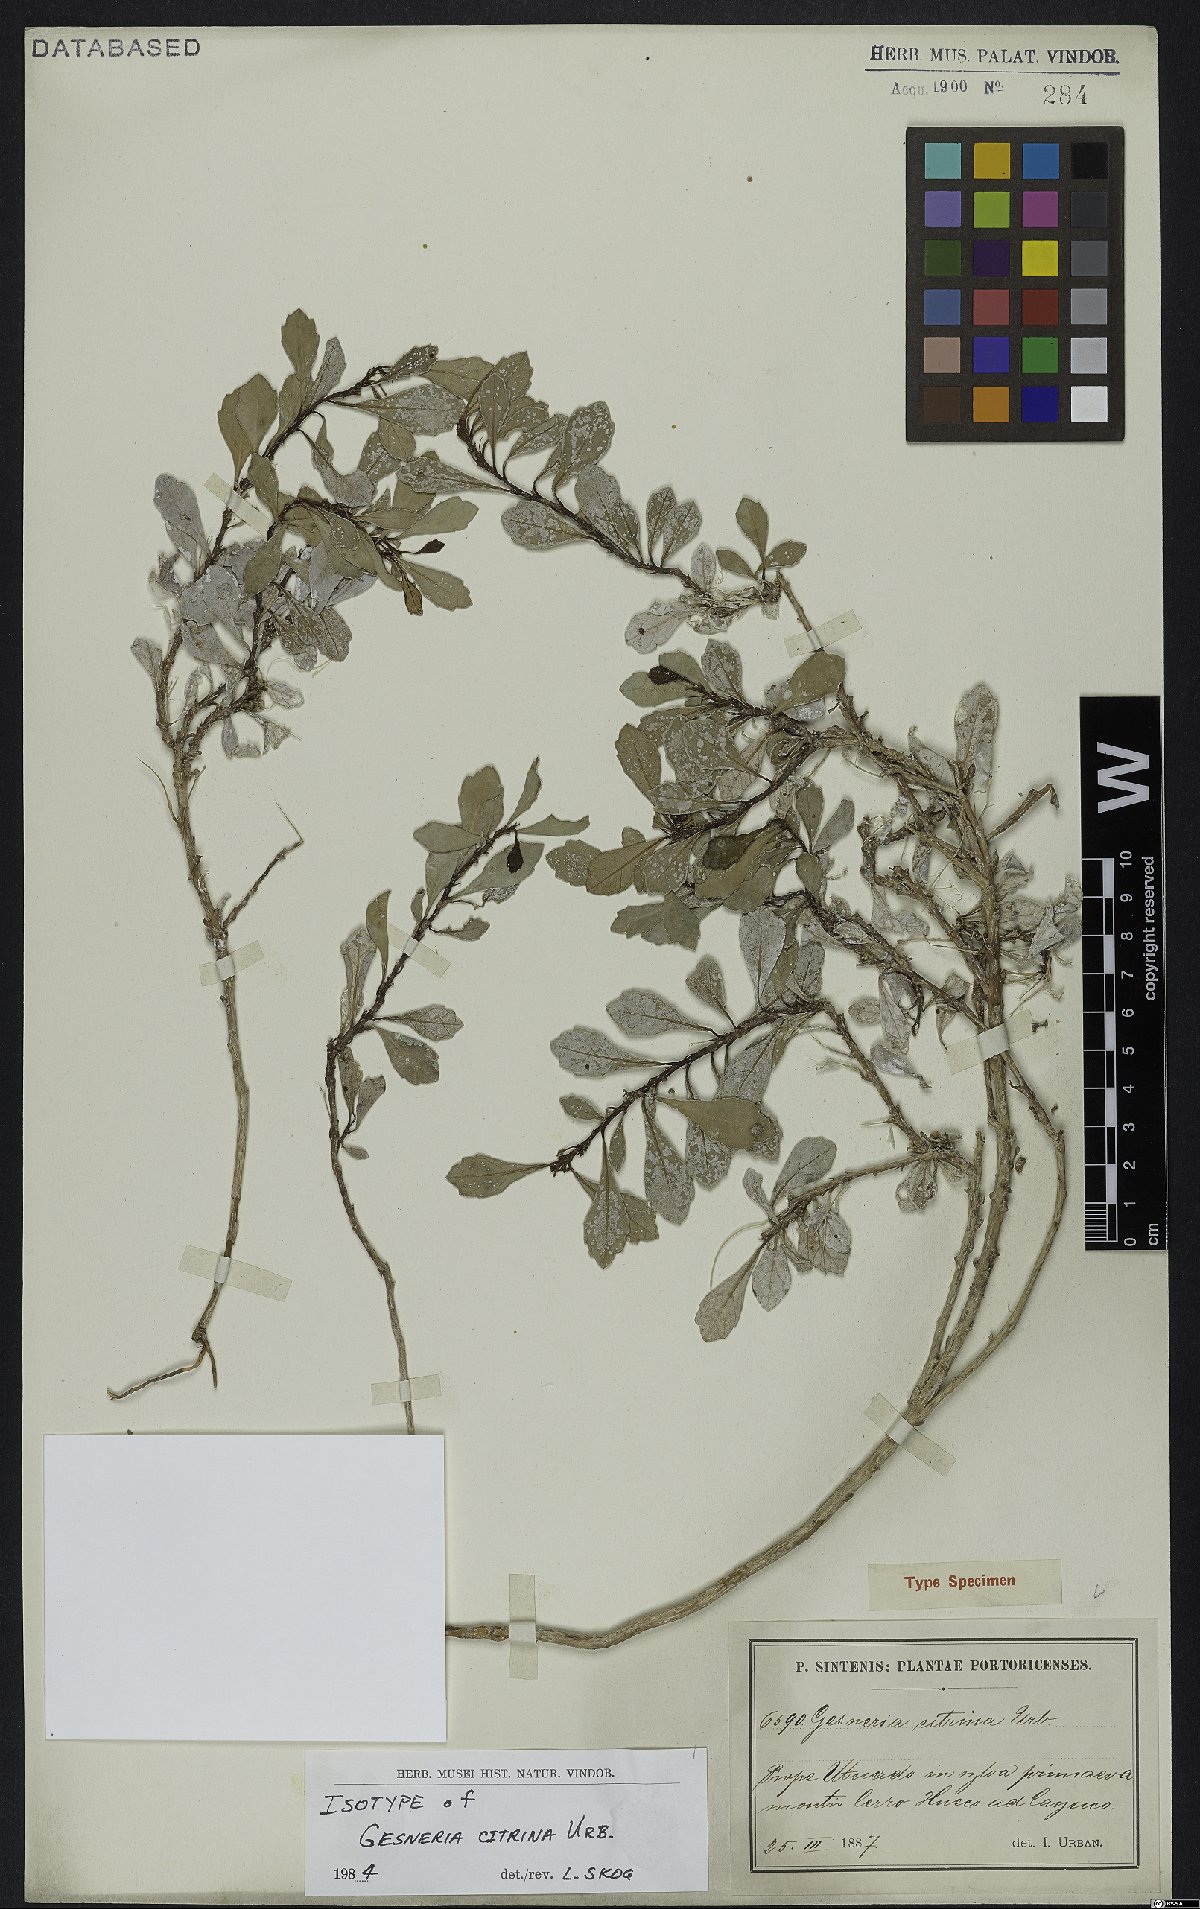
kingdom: Plantae
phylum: Tracheophyta
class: Magnoliopsida
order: Lamiales
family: Gesneriaceae
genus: Gesneria
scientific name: Gesneria citrina
